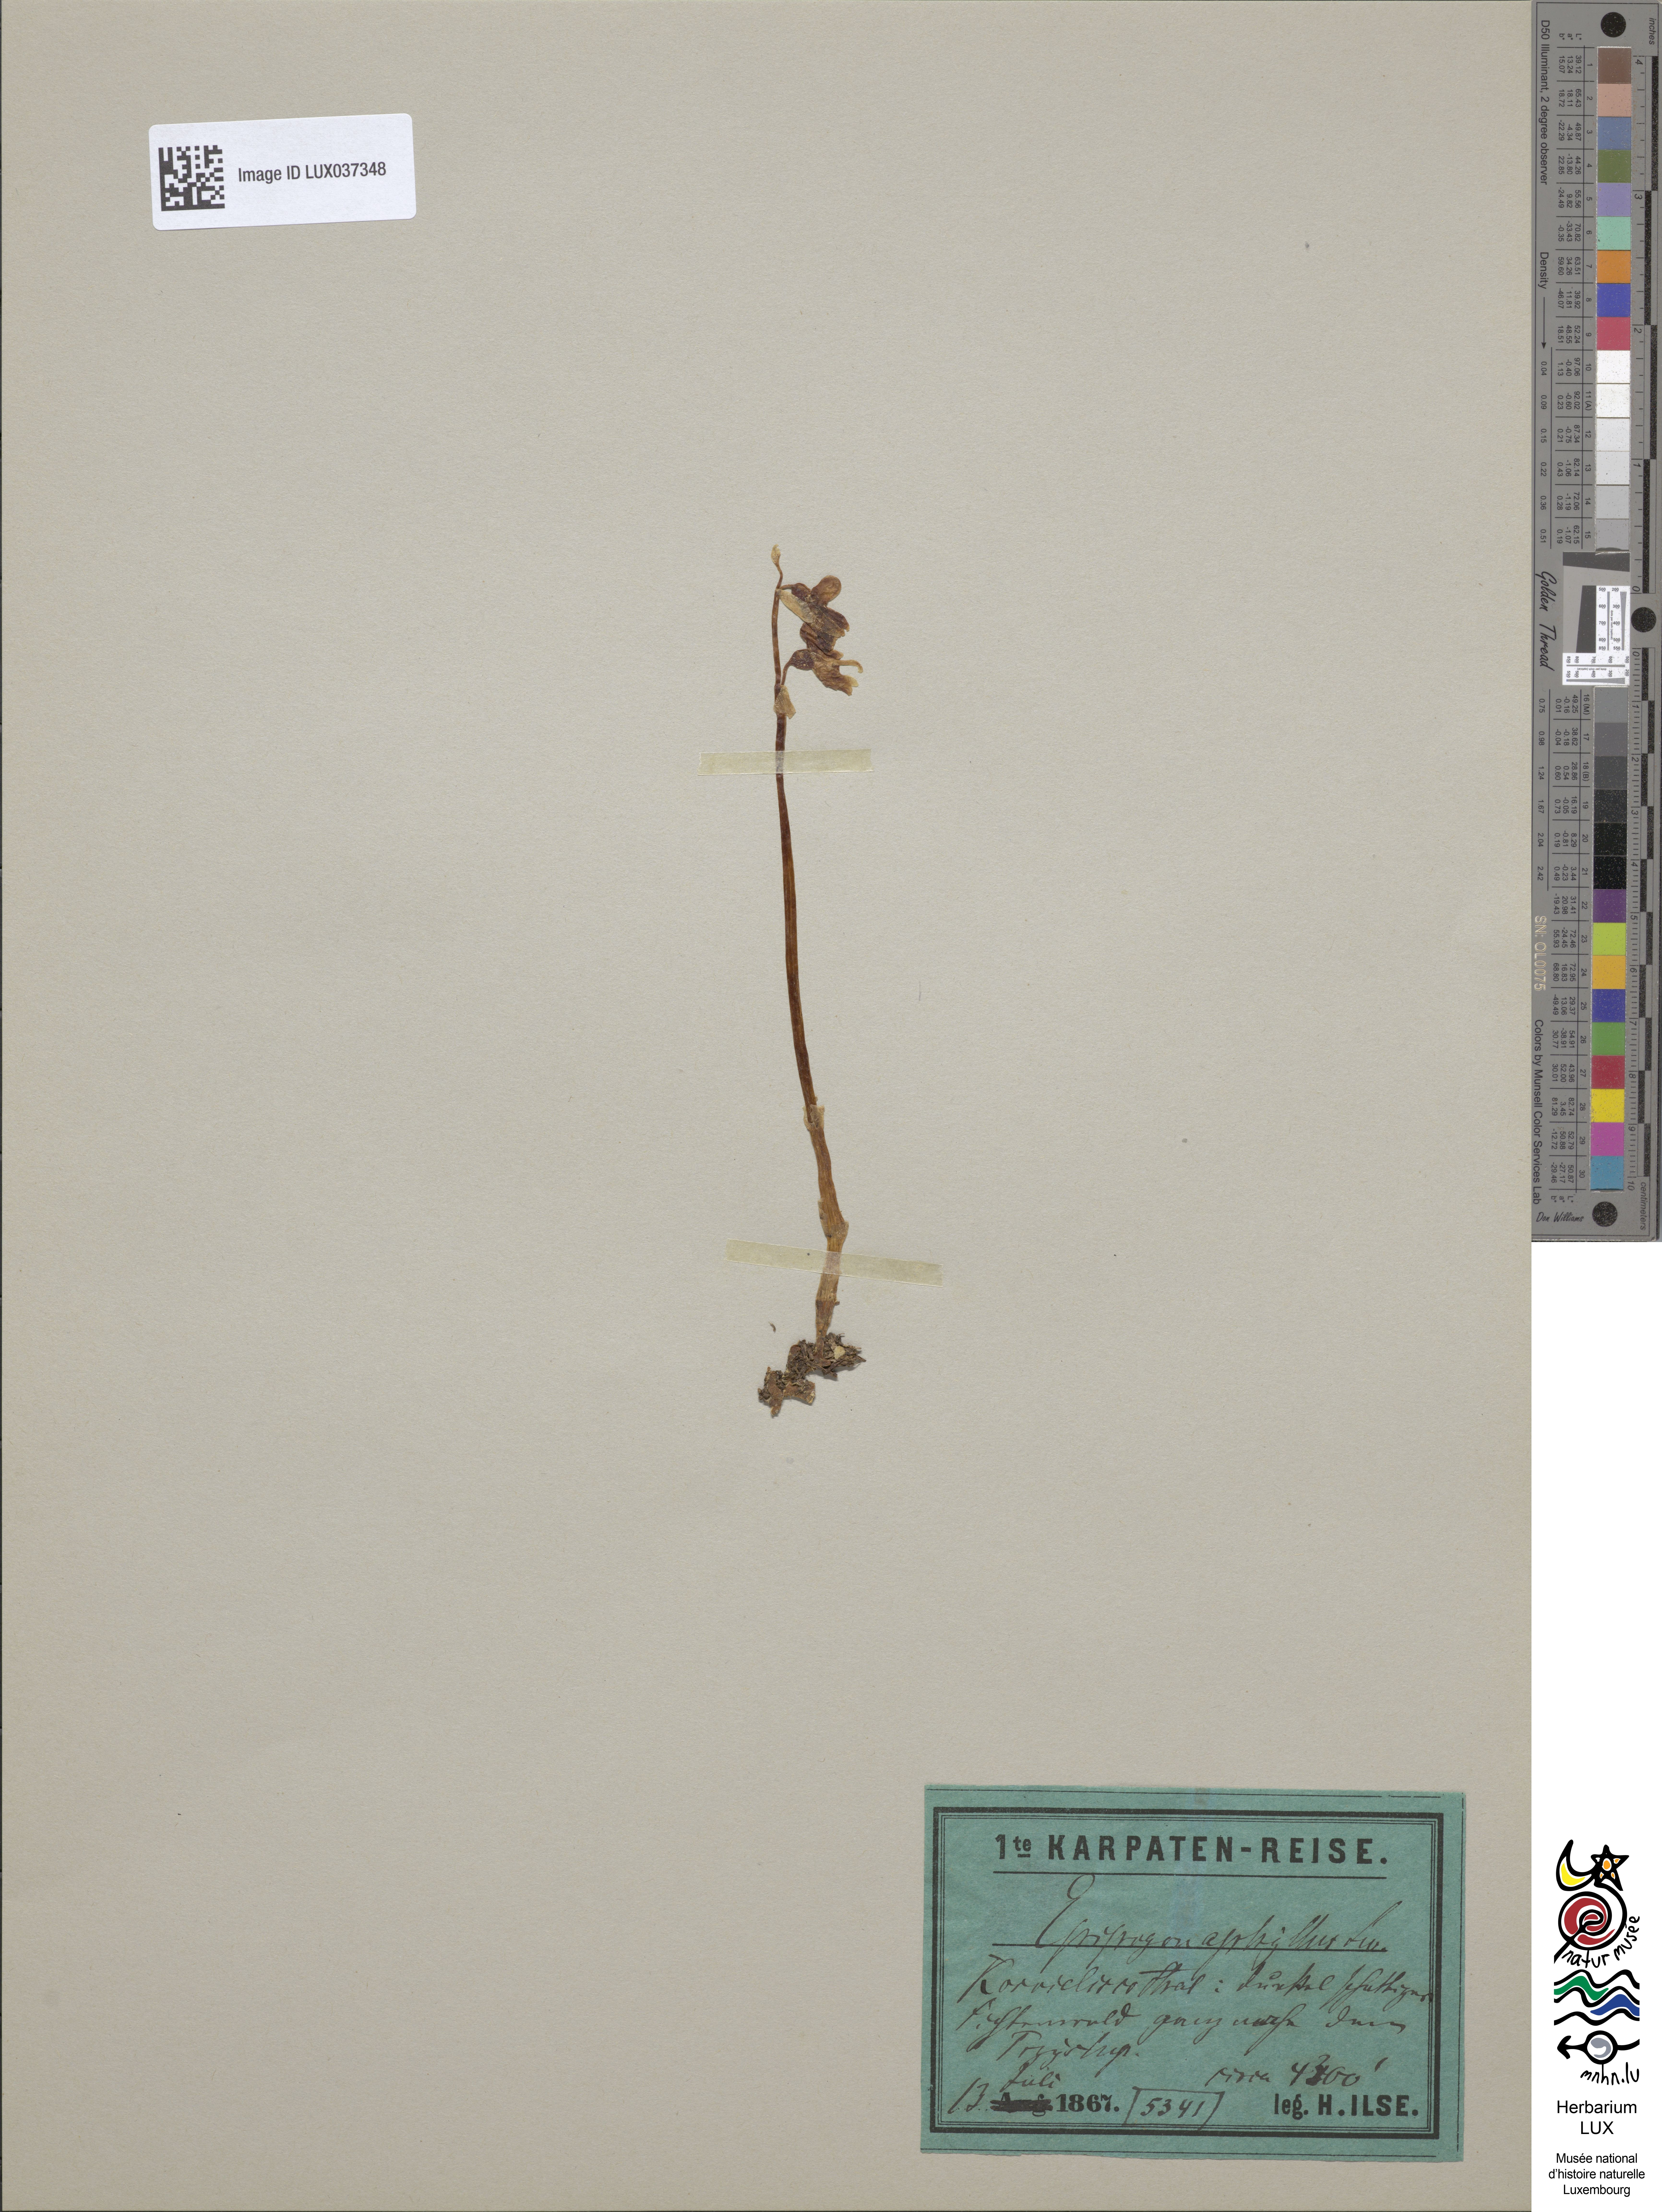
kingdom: Plantae
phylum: Tracheophyta
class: Liliopsida
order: Asparagales
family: Orchidaceae
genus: Epipogium
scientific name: Epipogium aphyllum
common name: Ghost orchid
